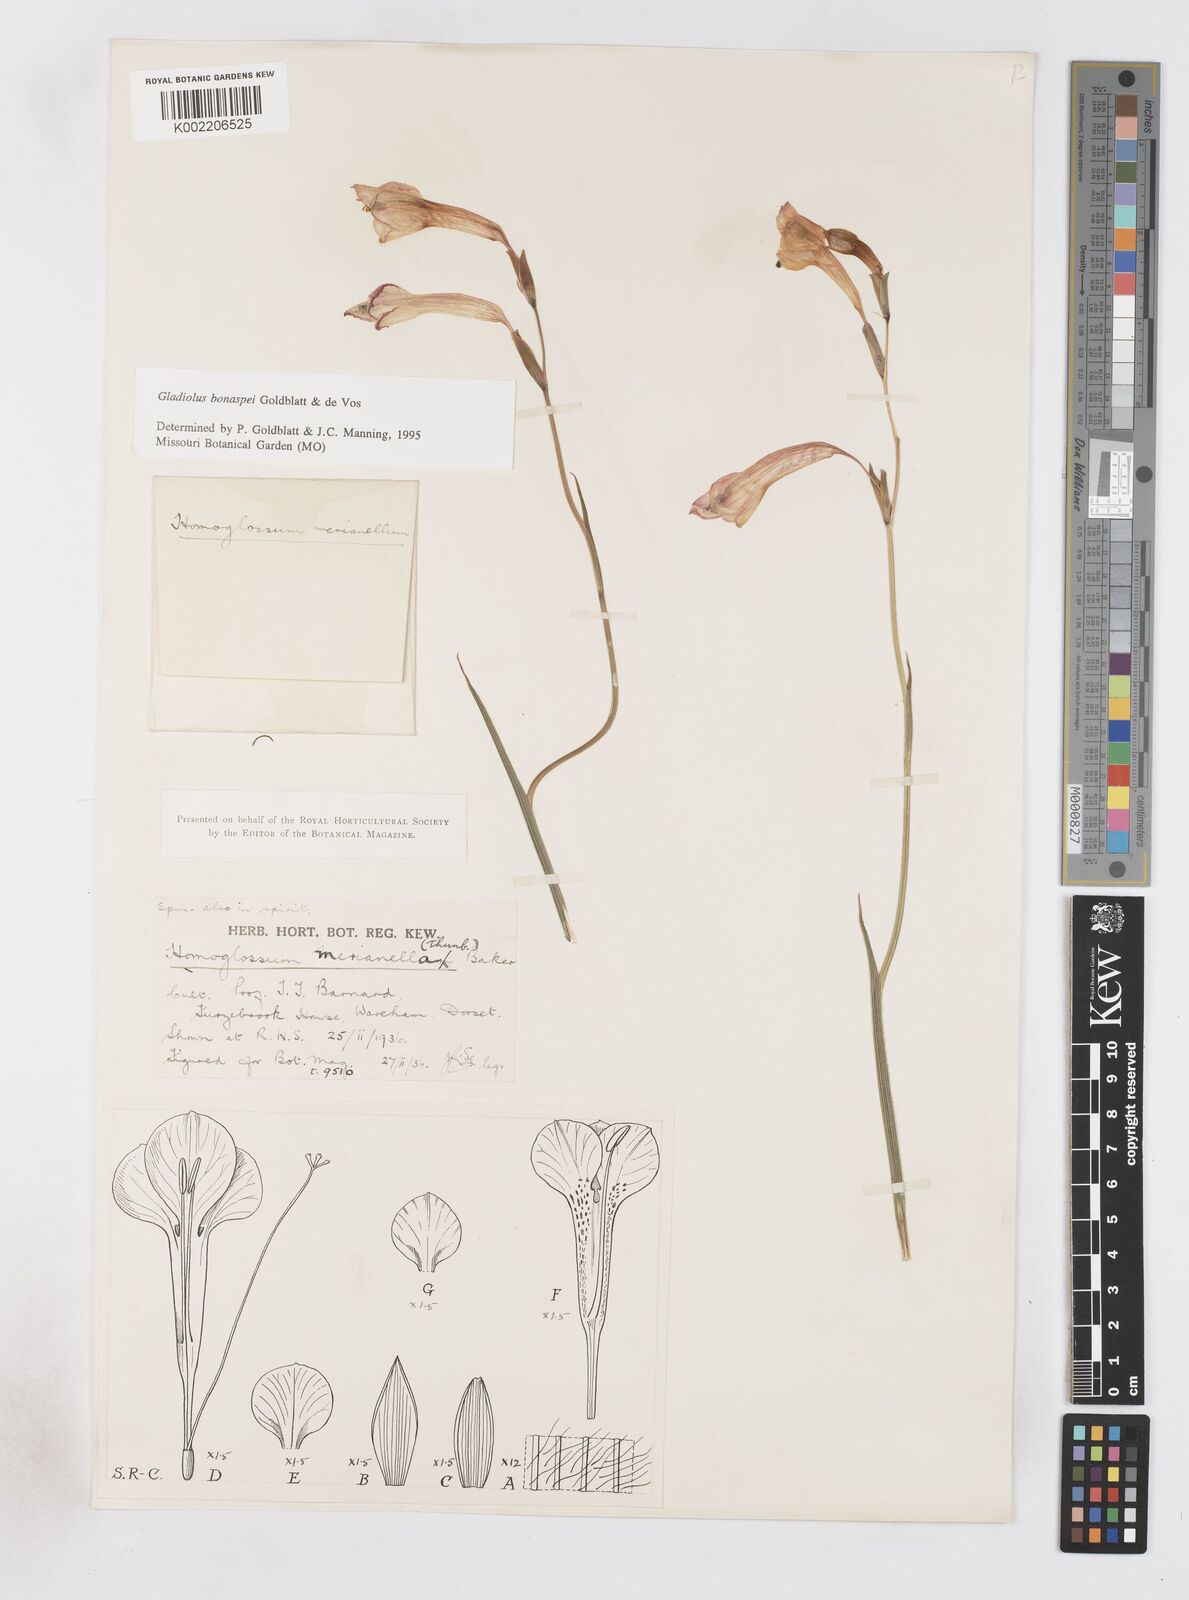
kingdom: Plantae
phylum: Tracheophyta
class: Liliopsida
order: Asparagales
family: Iridaceae
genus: Gladiolus
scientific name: Gladiolus merianellus
